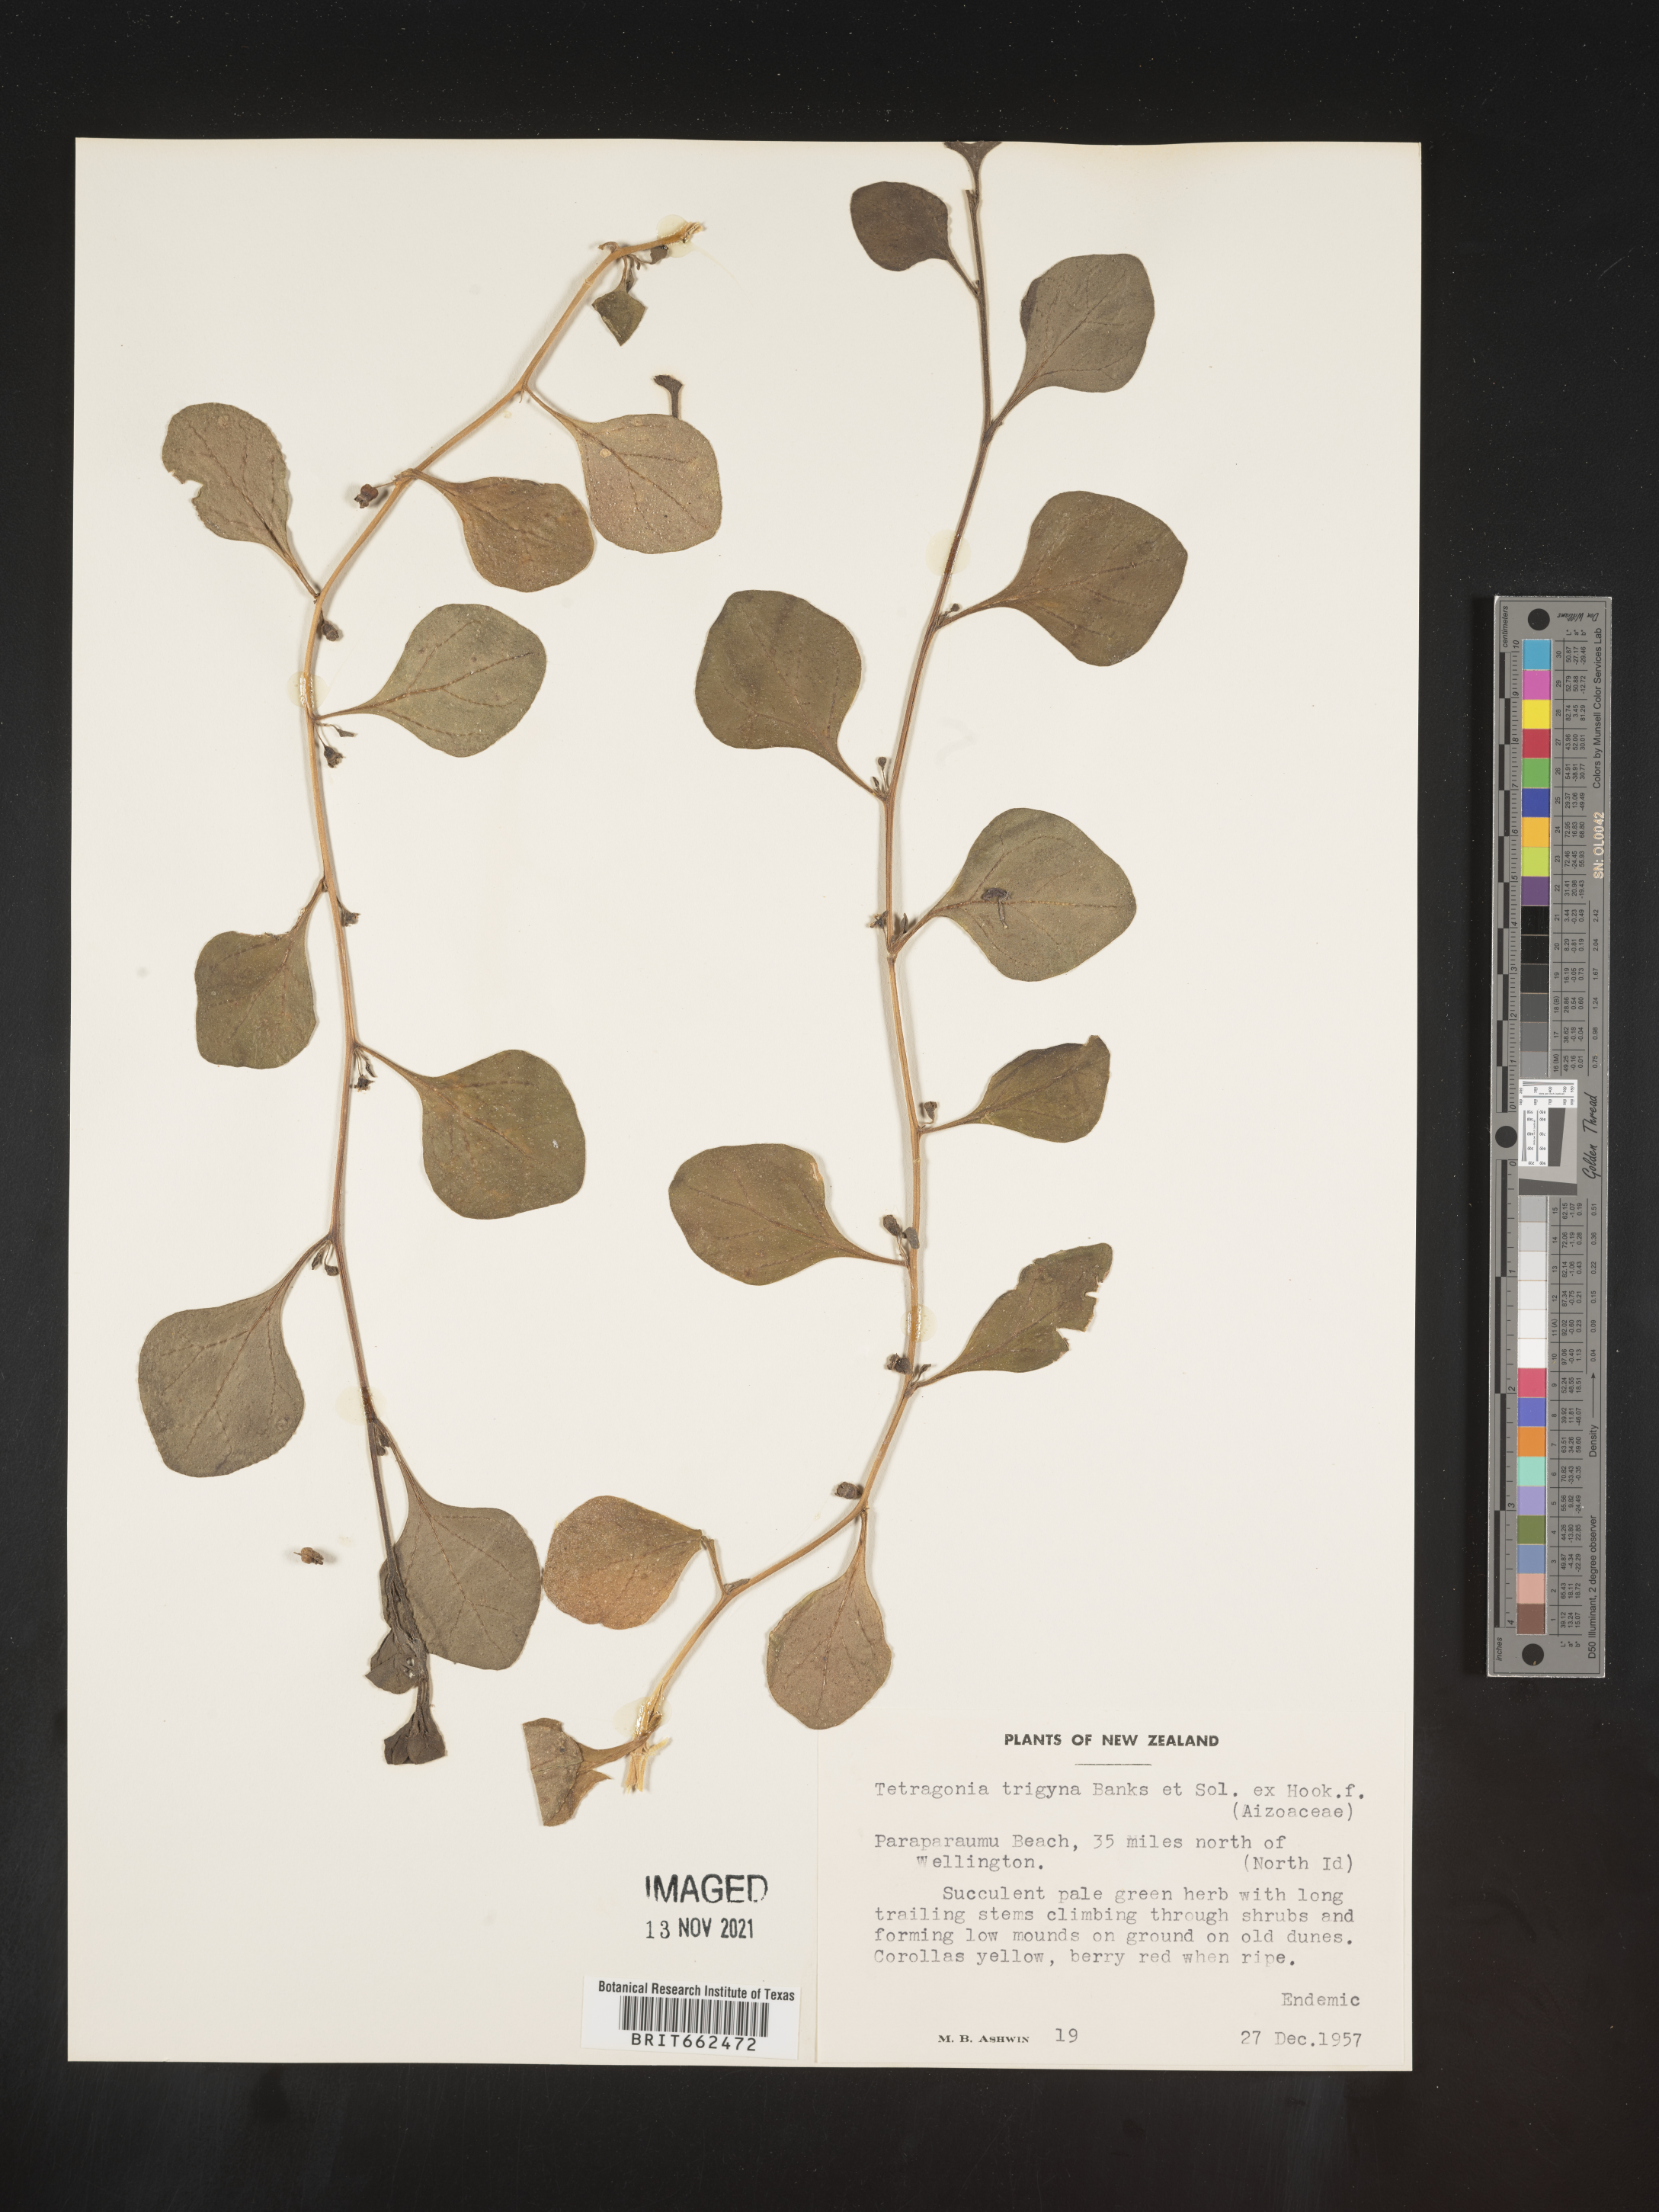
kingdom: Plantae
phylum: Tracheophyta
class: Magnoliopsida
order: Caryophyllales
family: Aizoaceae
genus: Tetragonia
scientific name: Tetragonia
